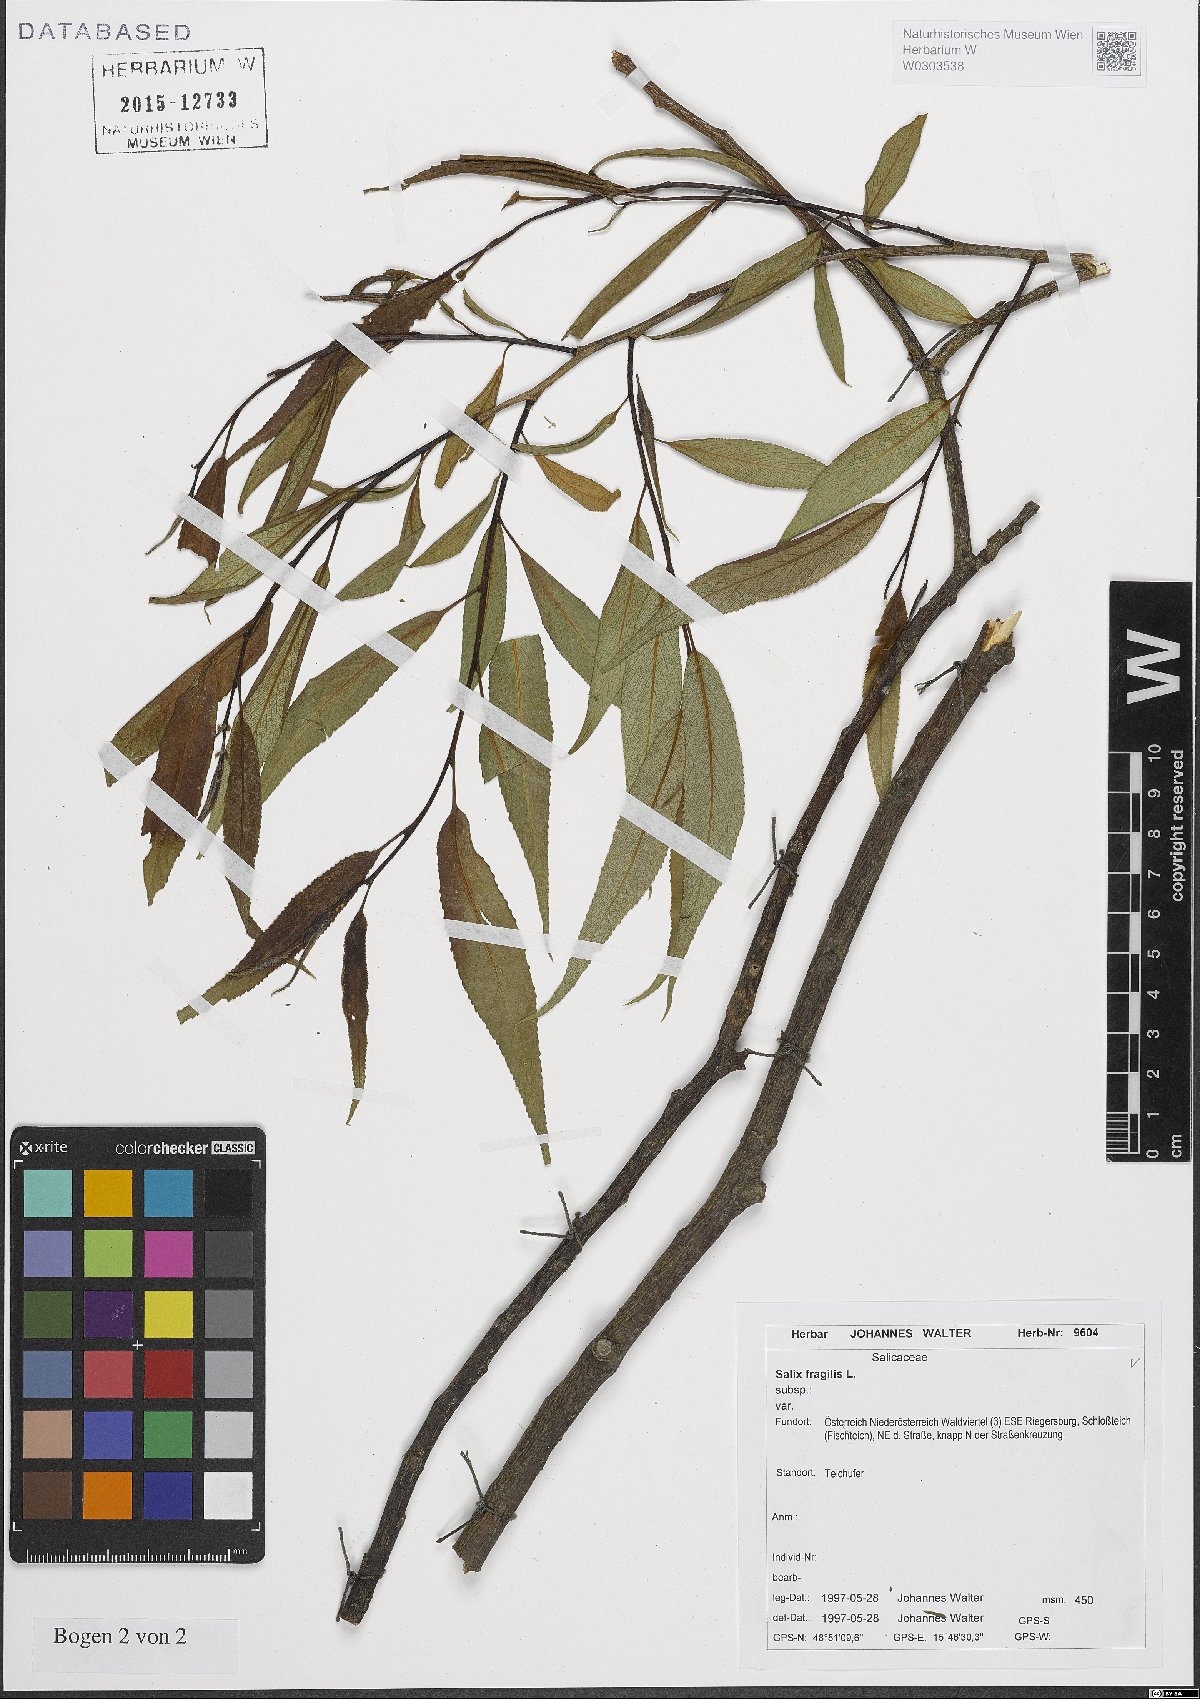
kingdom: Plantae
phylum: Tracheophyta
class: Magnoliopsida
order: Malpighiales
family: Salicaceae
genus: Salix
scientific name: Salix fragilis
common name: Crack willow
